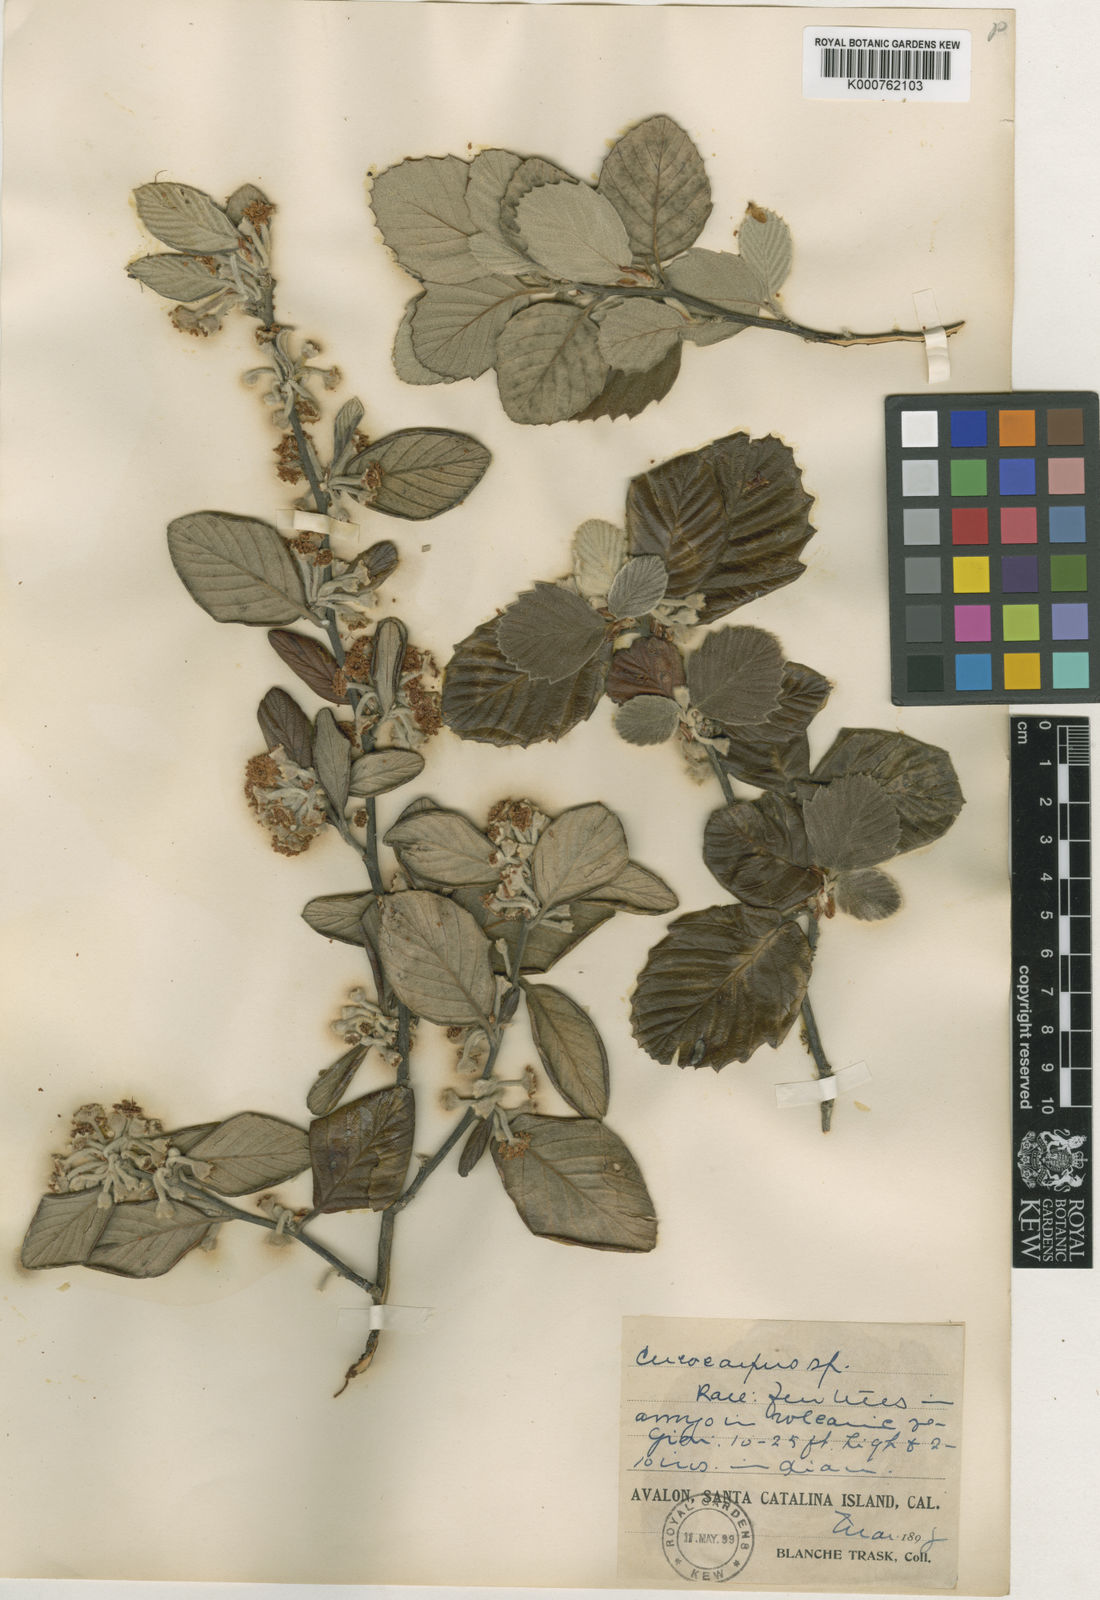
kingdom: Plantae
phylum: Tracheophyta
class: Magnoliopsida
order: Rosales
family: Rosaceae
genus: Cercocarpus
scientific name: Cercocarpus betuloides
